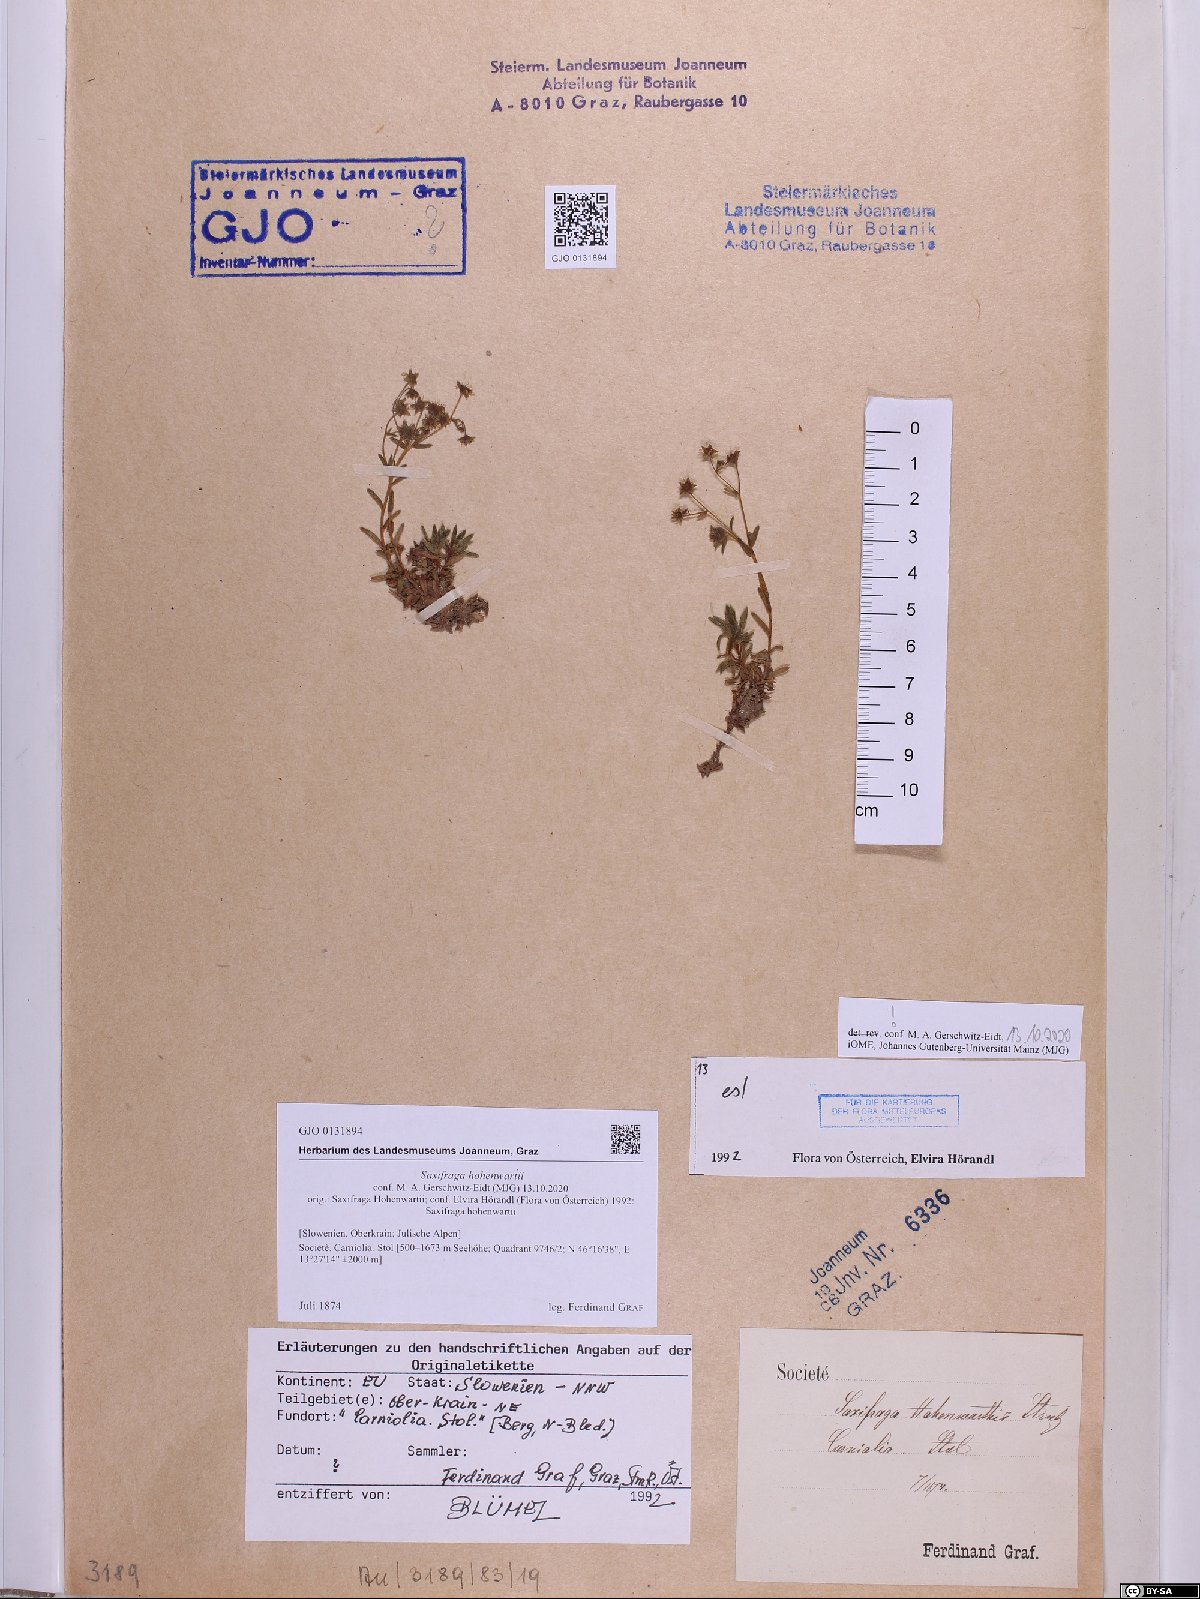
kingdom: Plantae
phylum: Tracheophyta
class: Magnoliopsida
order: Saxifragales
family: Saxifragaceae
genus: Saxifraga
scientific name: Saxifraga hohenwartii
